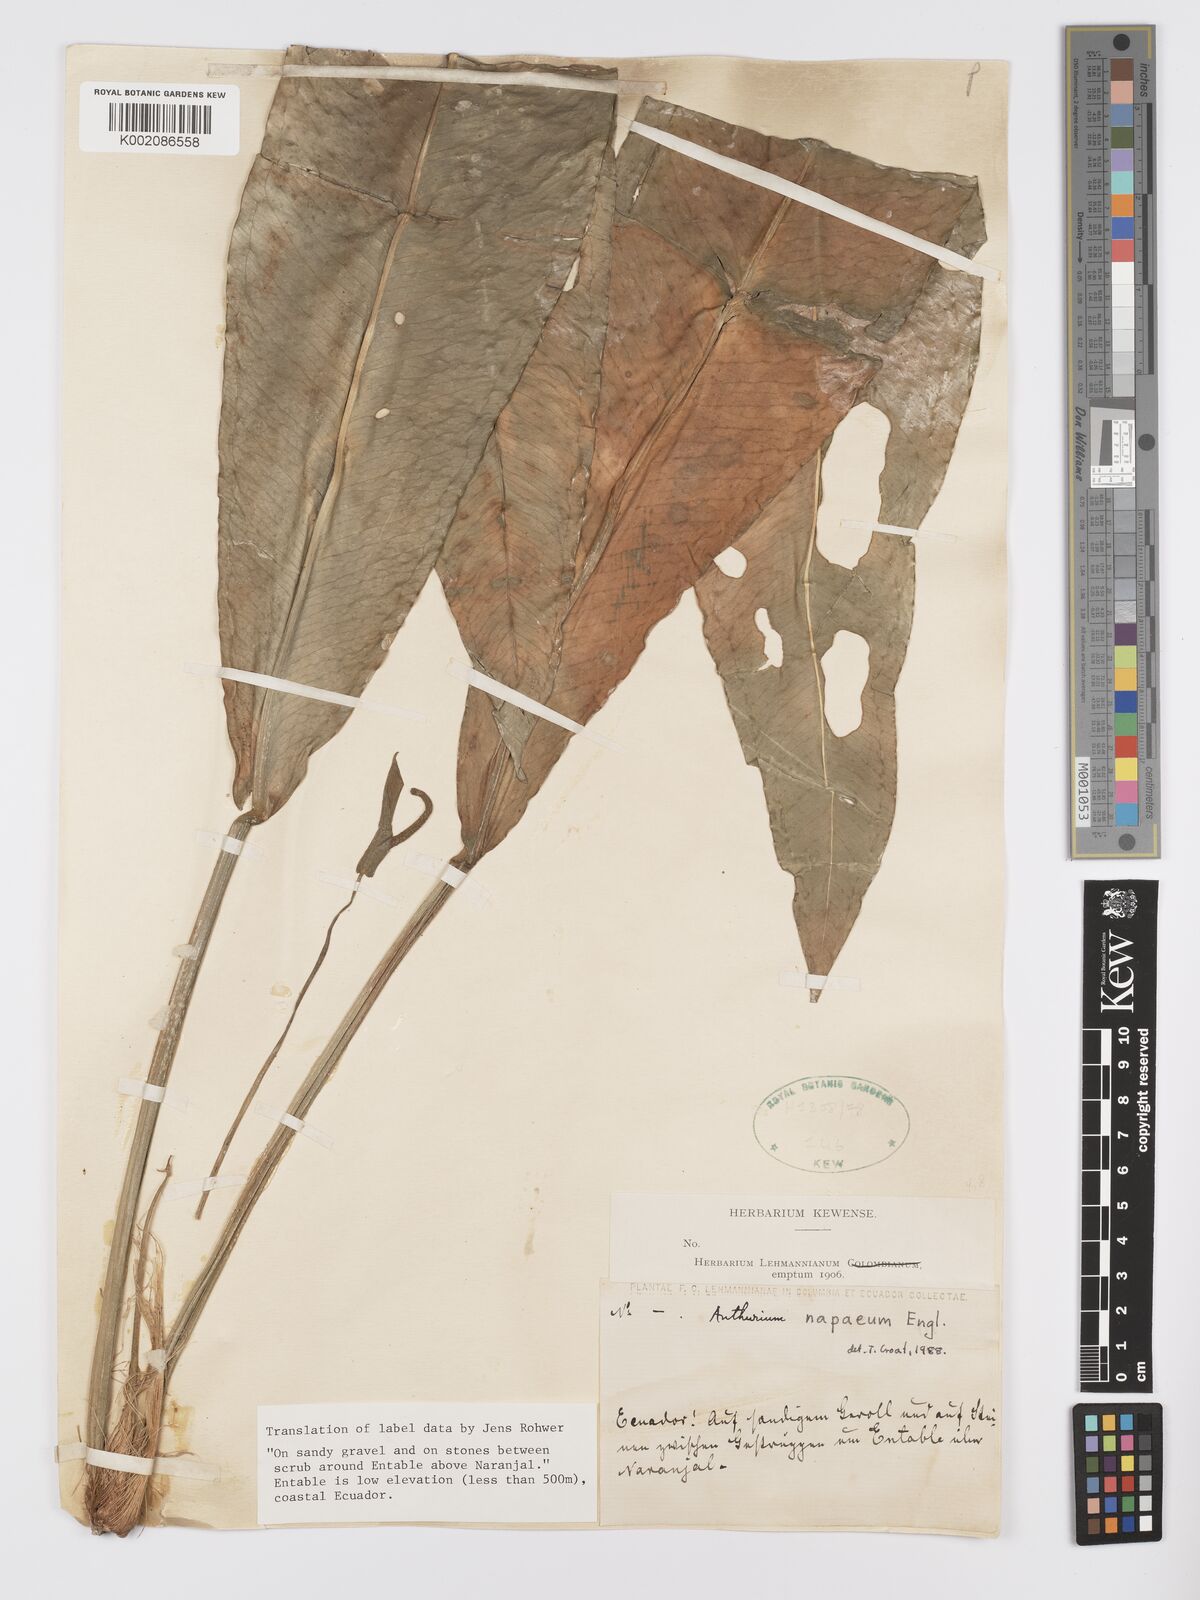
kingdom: Plantae
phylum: Tracheophyta
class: Liliopsida
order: Alismatales
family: Araceae
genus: Anthurium
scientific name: Anthurium napaeum
